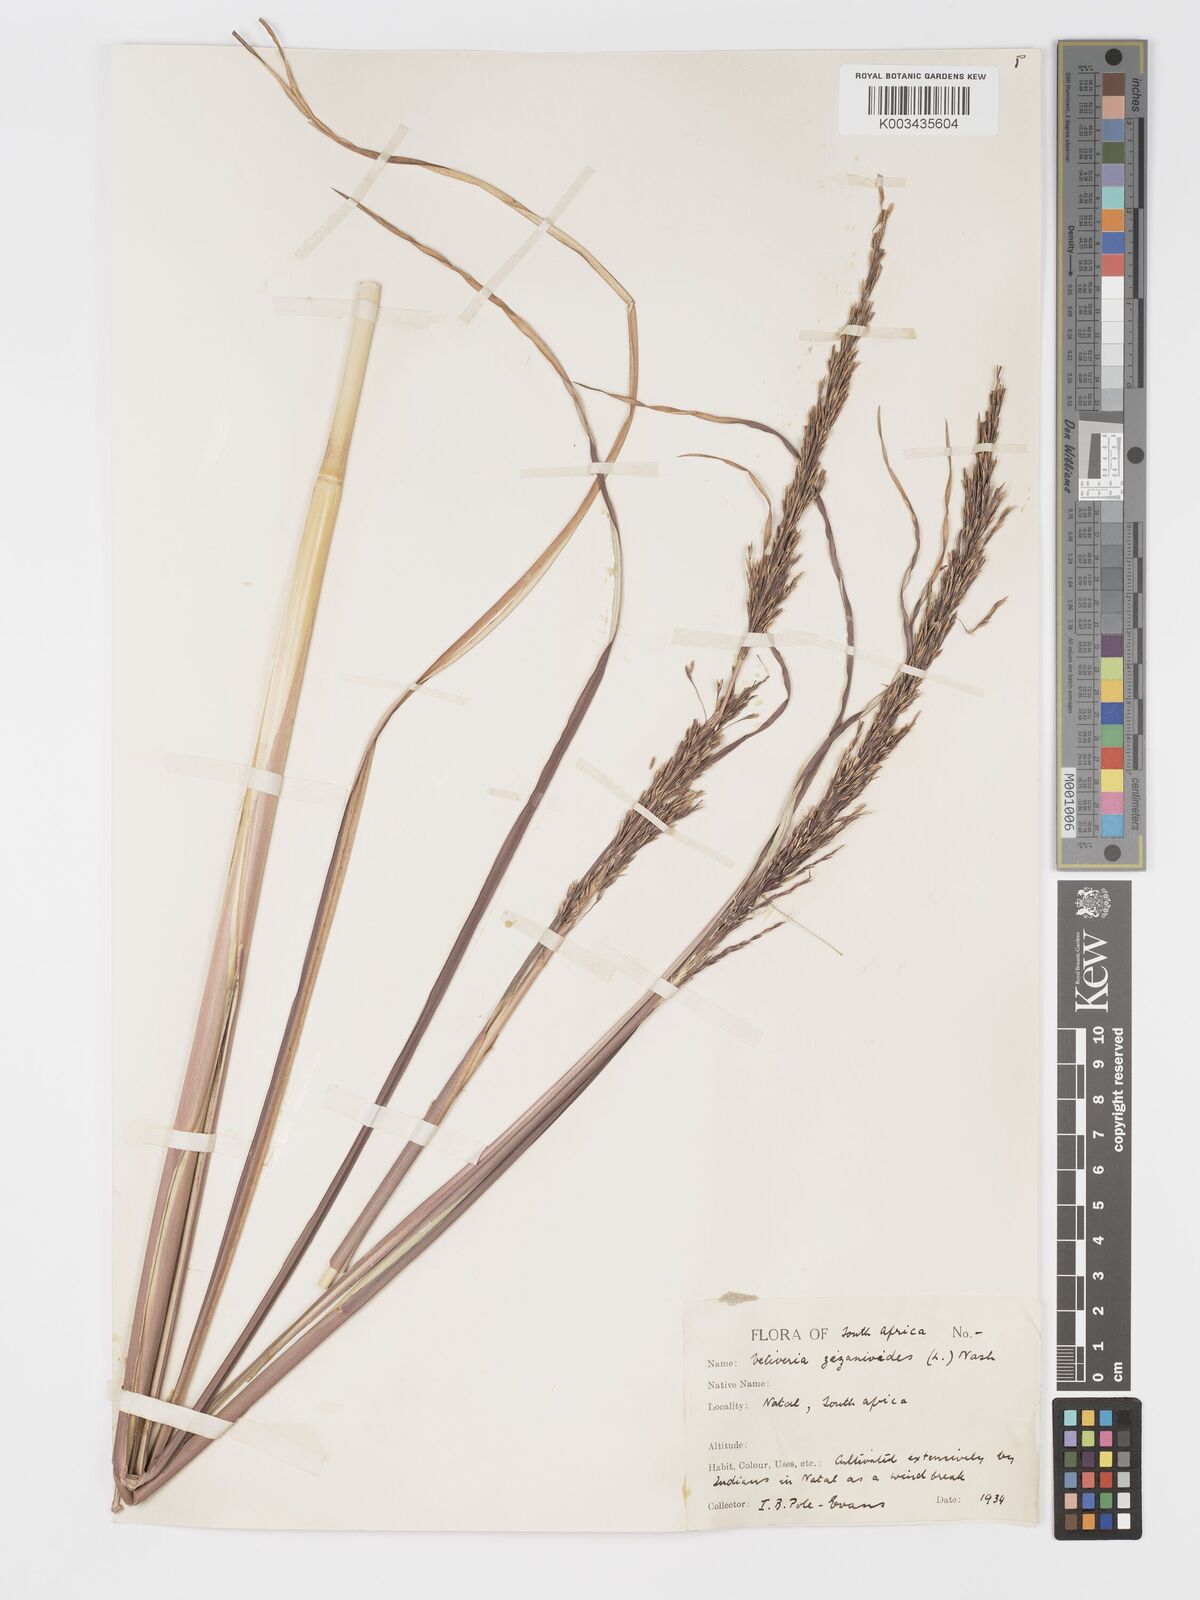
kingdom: Plantae
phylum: Tracheophyta
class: Liliopsida
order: Poales
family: Poaceae
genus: Chrysopogon
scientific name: Chrysopogon zizanioides
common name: False beardgrass
